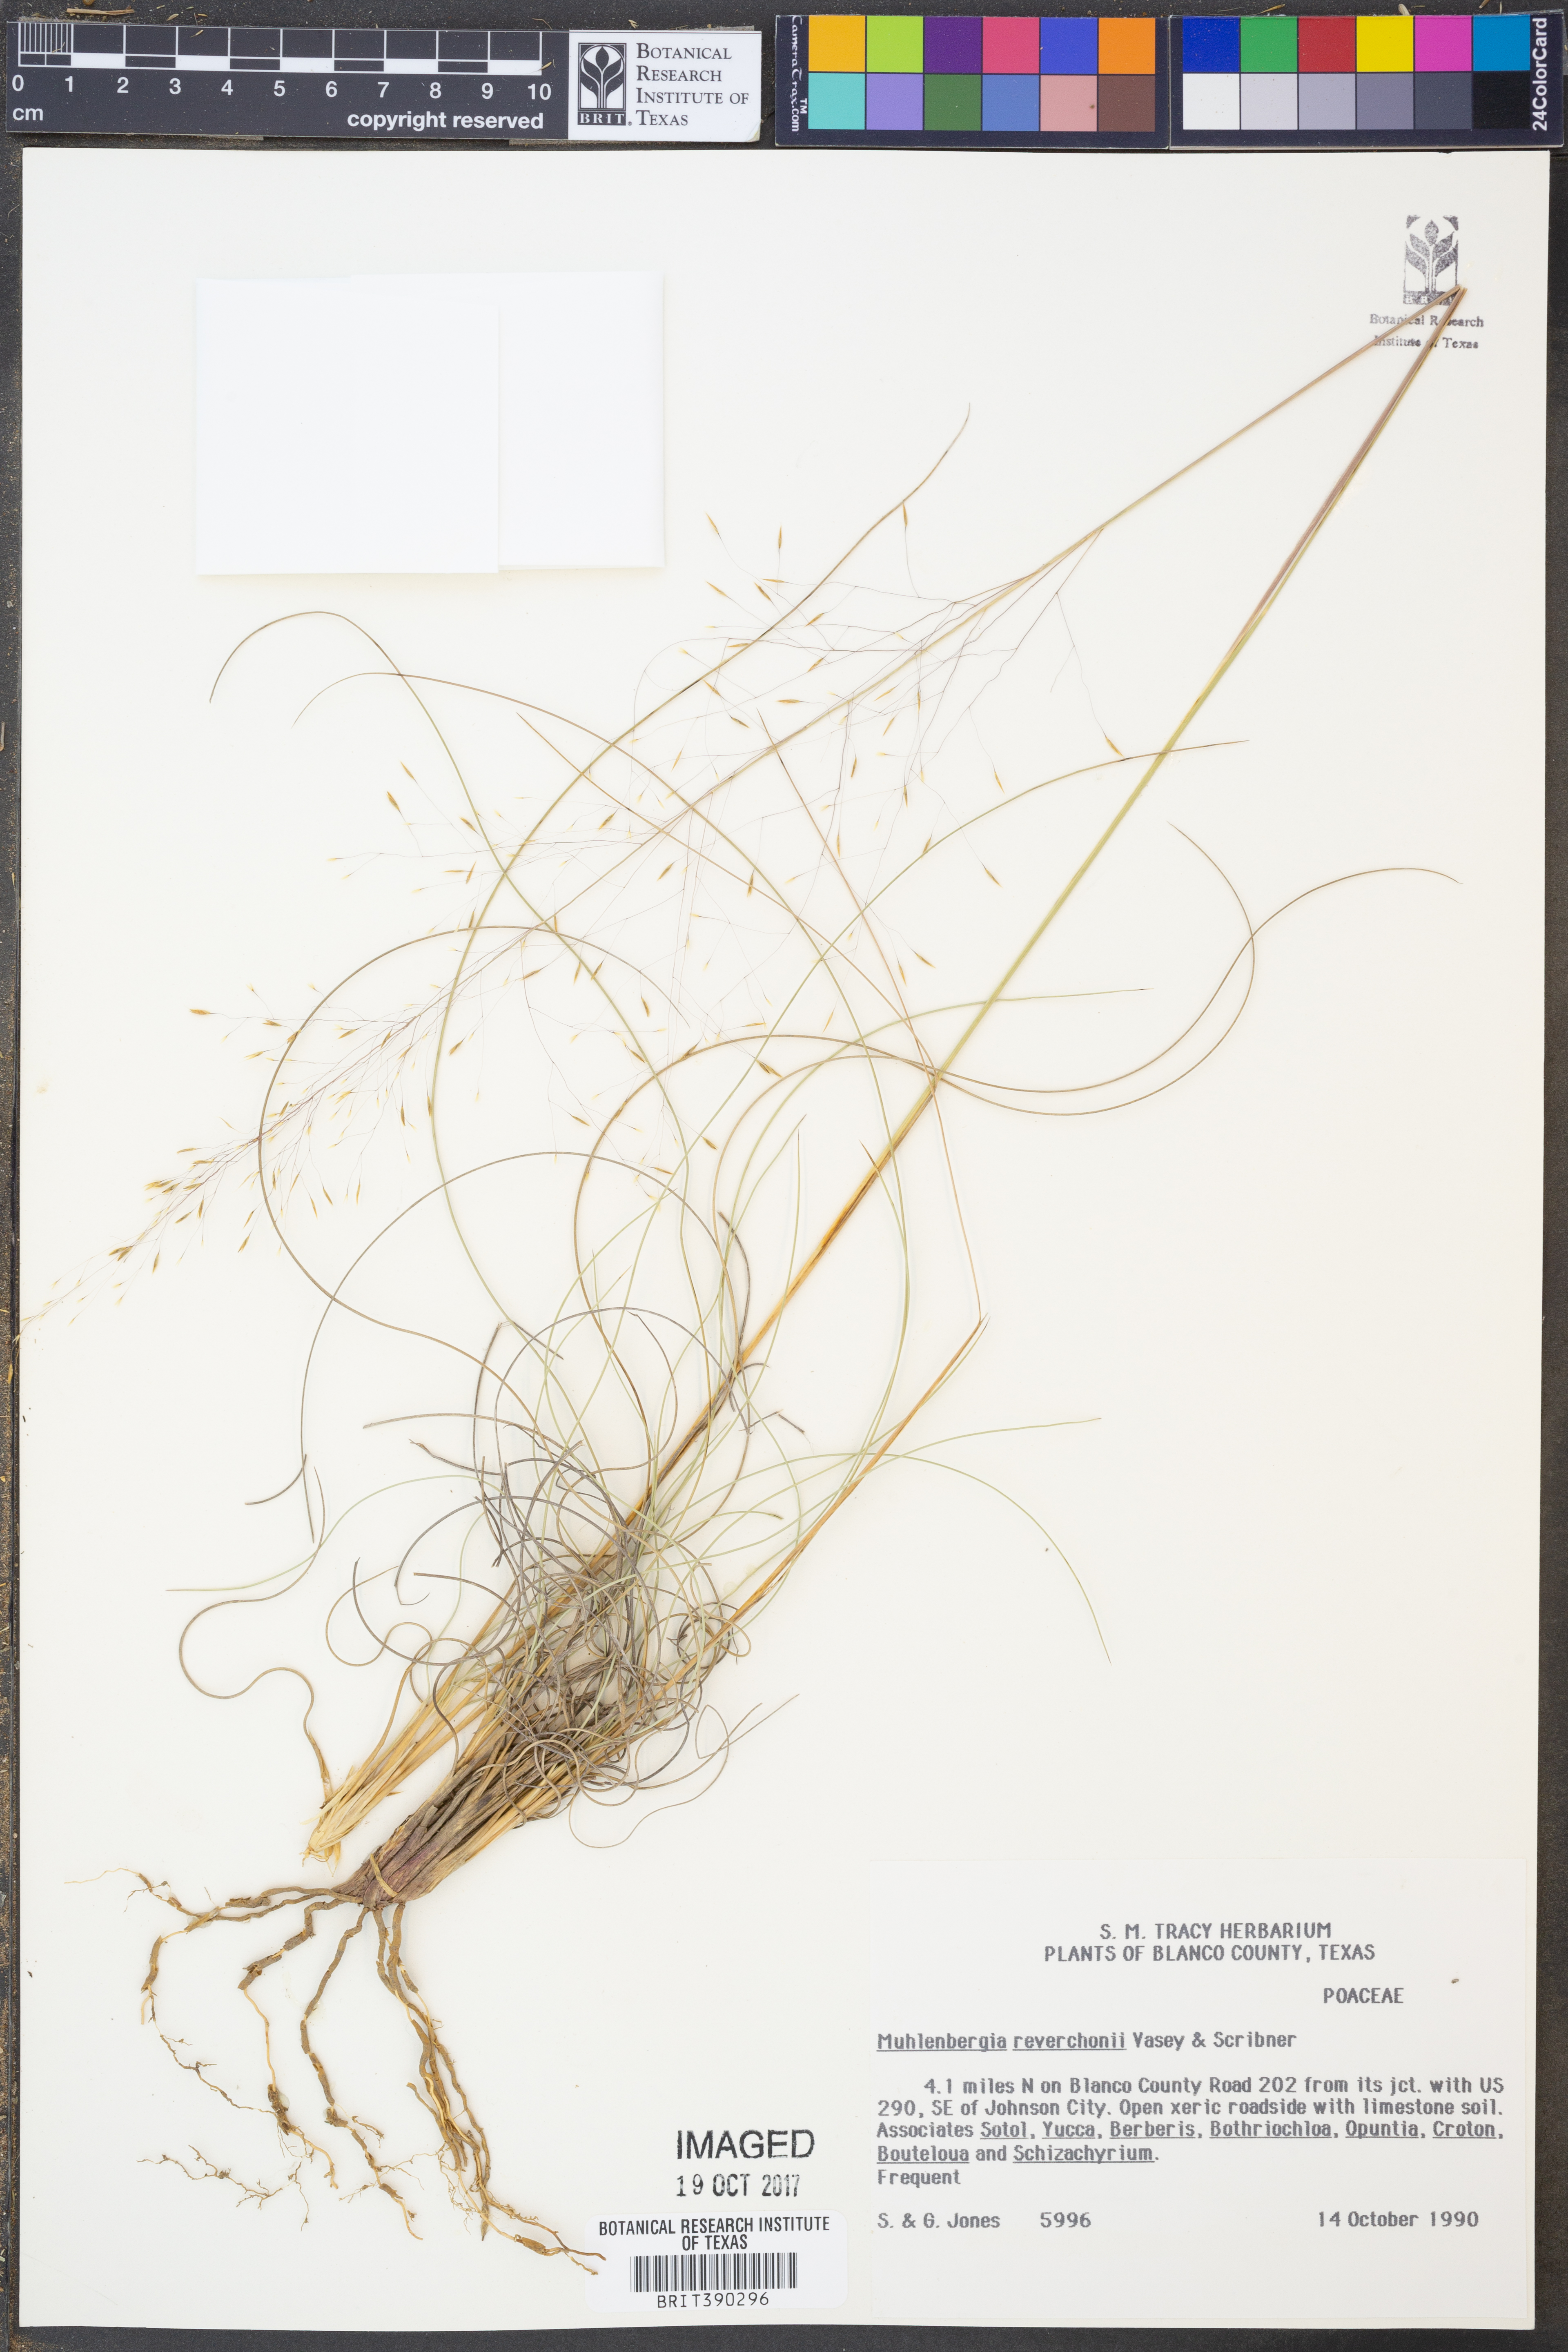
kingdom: Plantae
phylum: Tracheophyta
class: Liliopsida
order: Poales
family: Poaceae
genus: Muhlenbergia
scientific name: Muhlenbergia reverchonii
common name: Seep muhly
